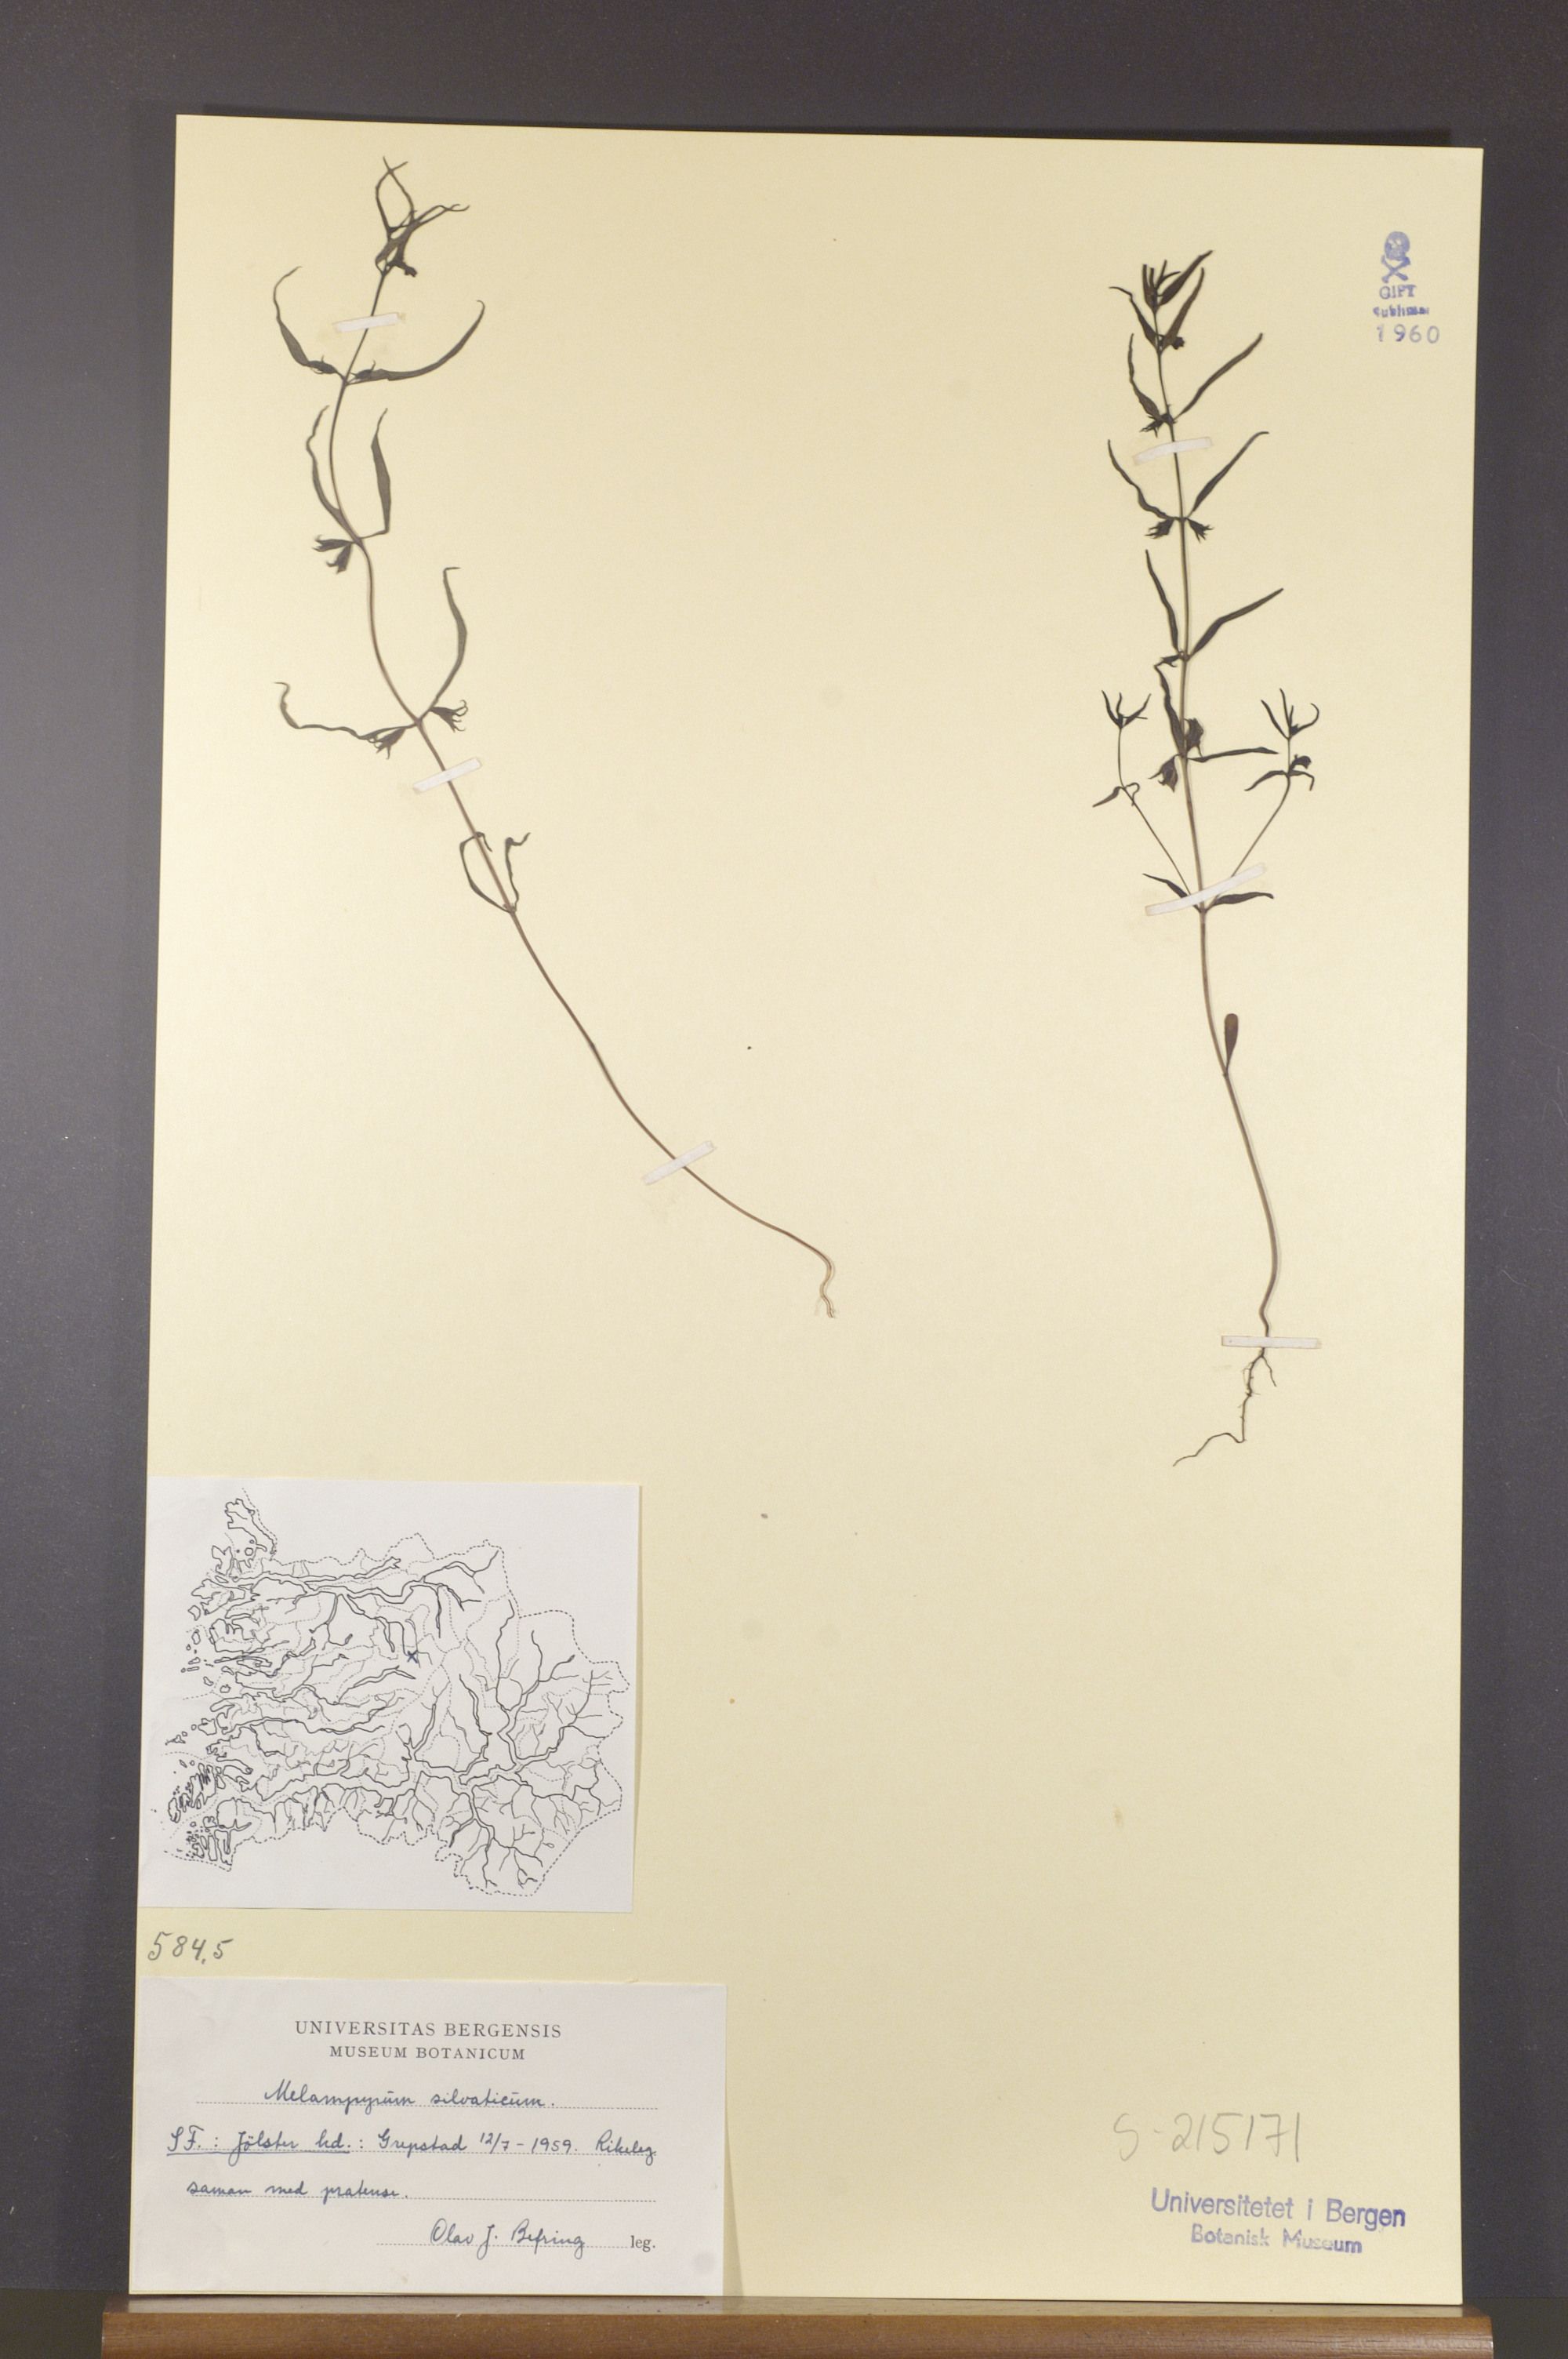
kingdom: Plantae
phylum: Tracheophyta
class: Magnoliopsida
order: Lamiales
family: Orobanchaceae
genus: Melampyrum
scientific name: Melampyrum sylvaticum
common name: Small cow-wheat
